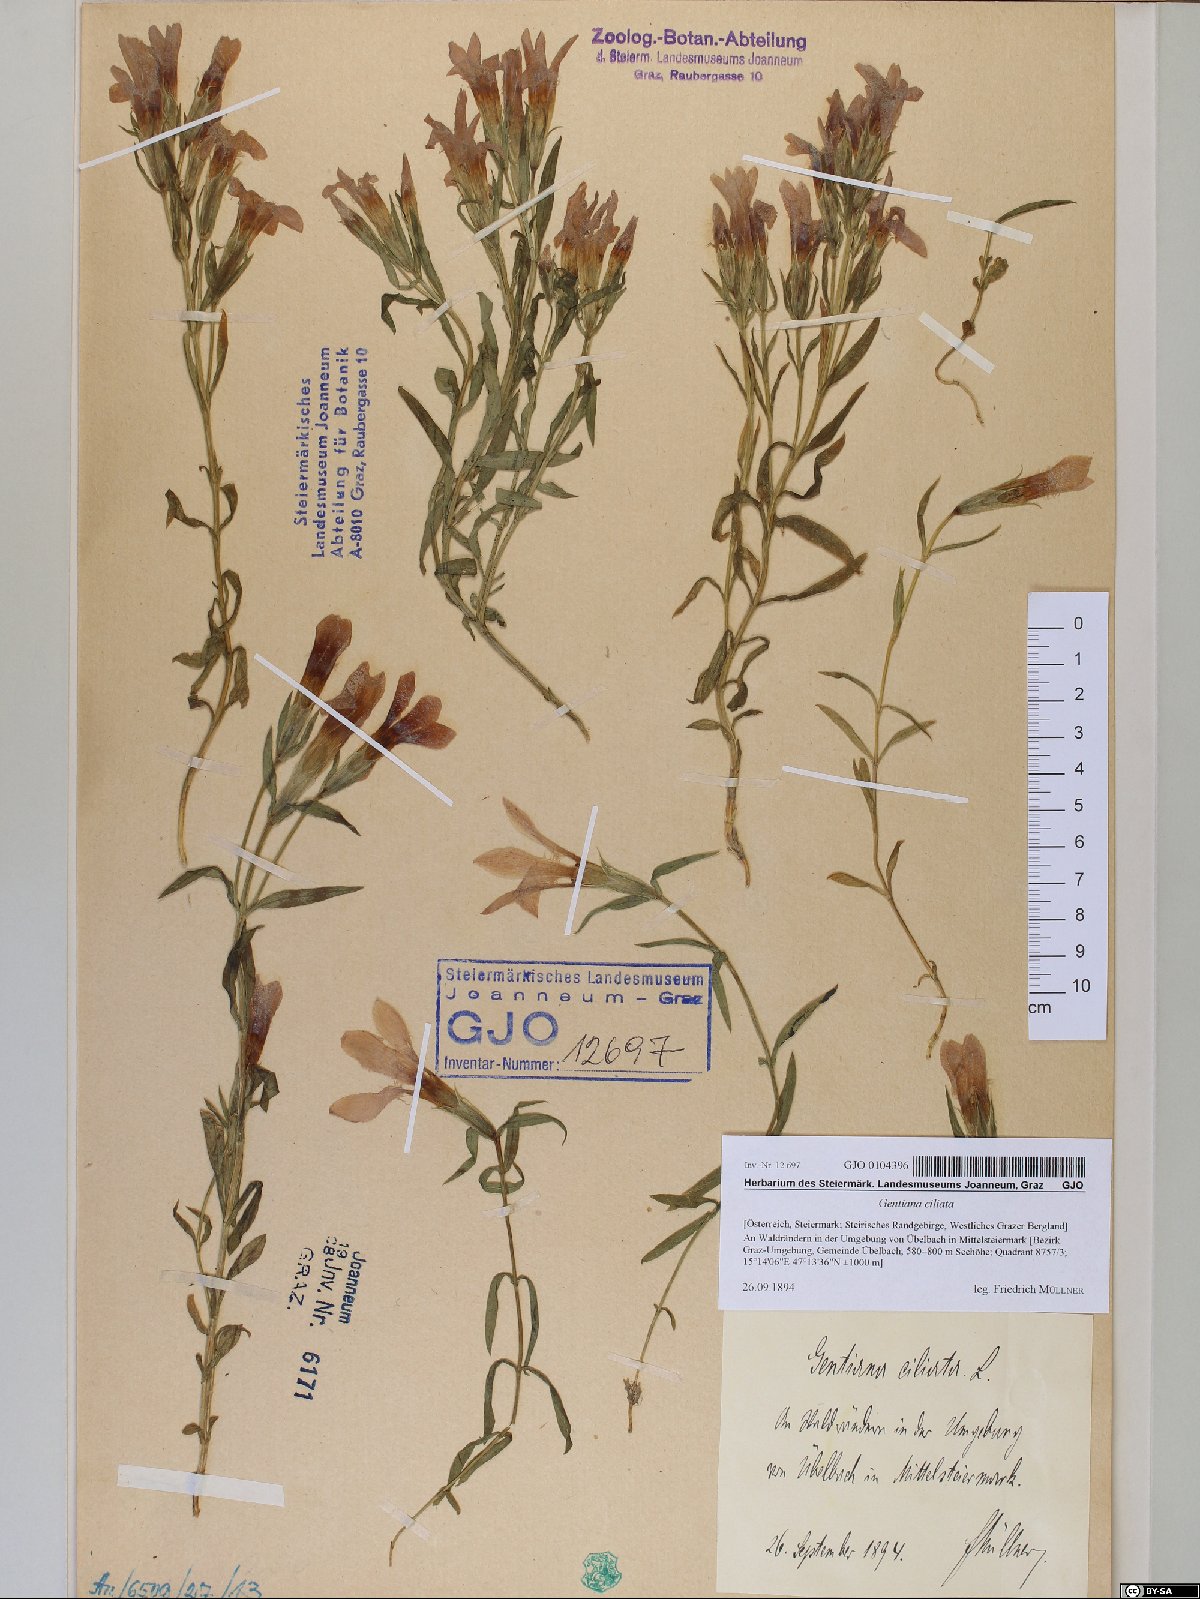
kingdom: Plantae
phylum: Tracheophyta
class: Magnoliopsida
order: Gentianales
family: Gentianaceae
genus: Gentianopsis
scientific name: Gentianopsis ciliata
